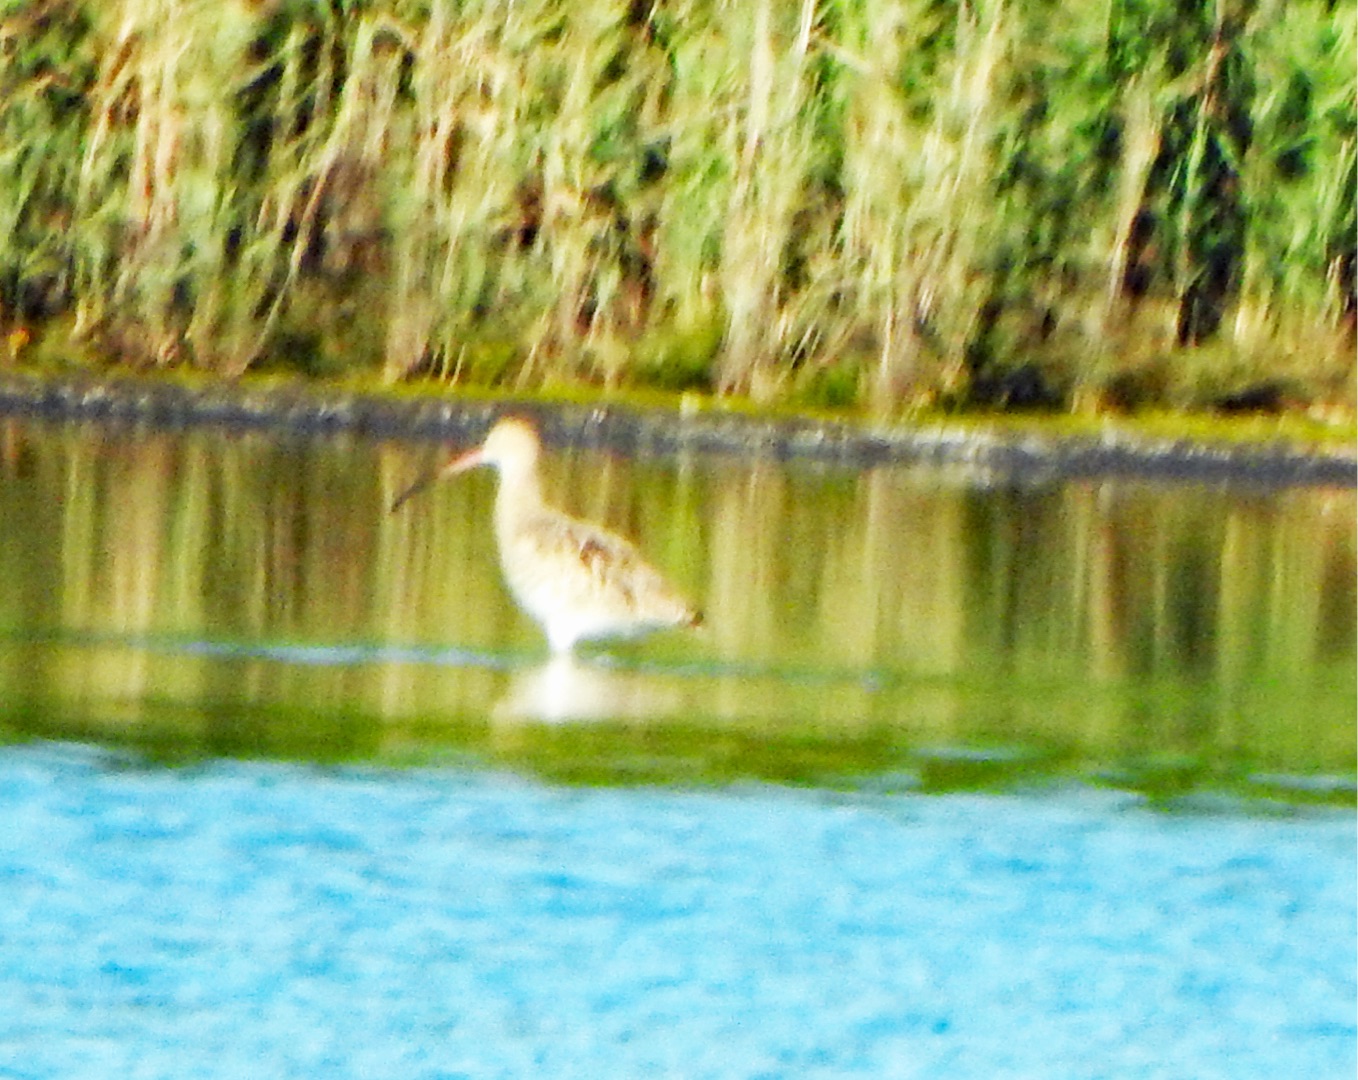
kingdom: Animalia
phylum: Chordata
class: Aves
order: Charadriiformes
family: Scolopacidae
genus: Numenius
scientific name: Numenius arquata
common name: Storspove
